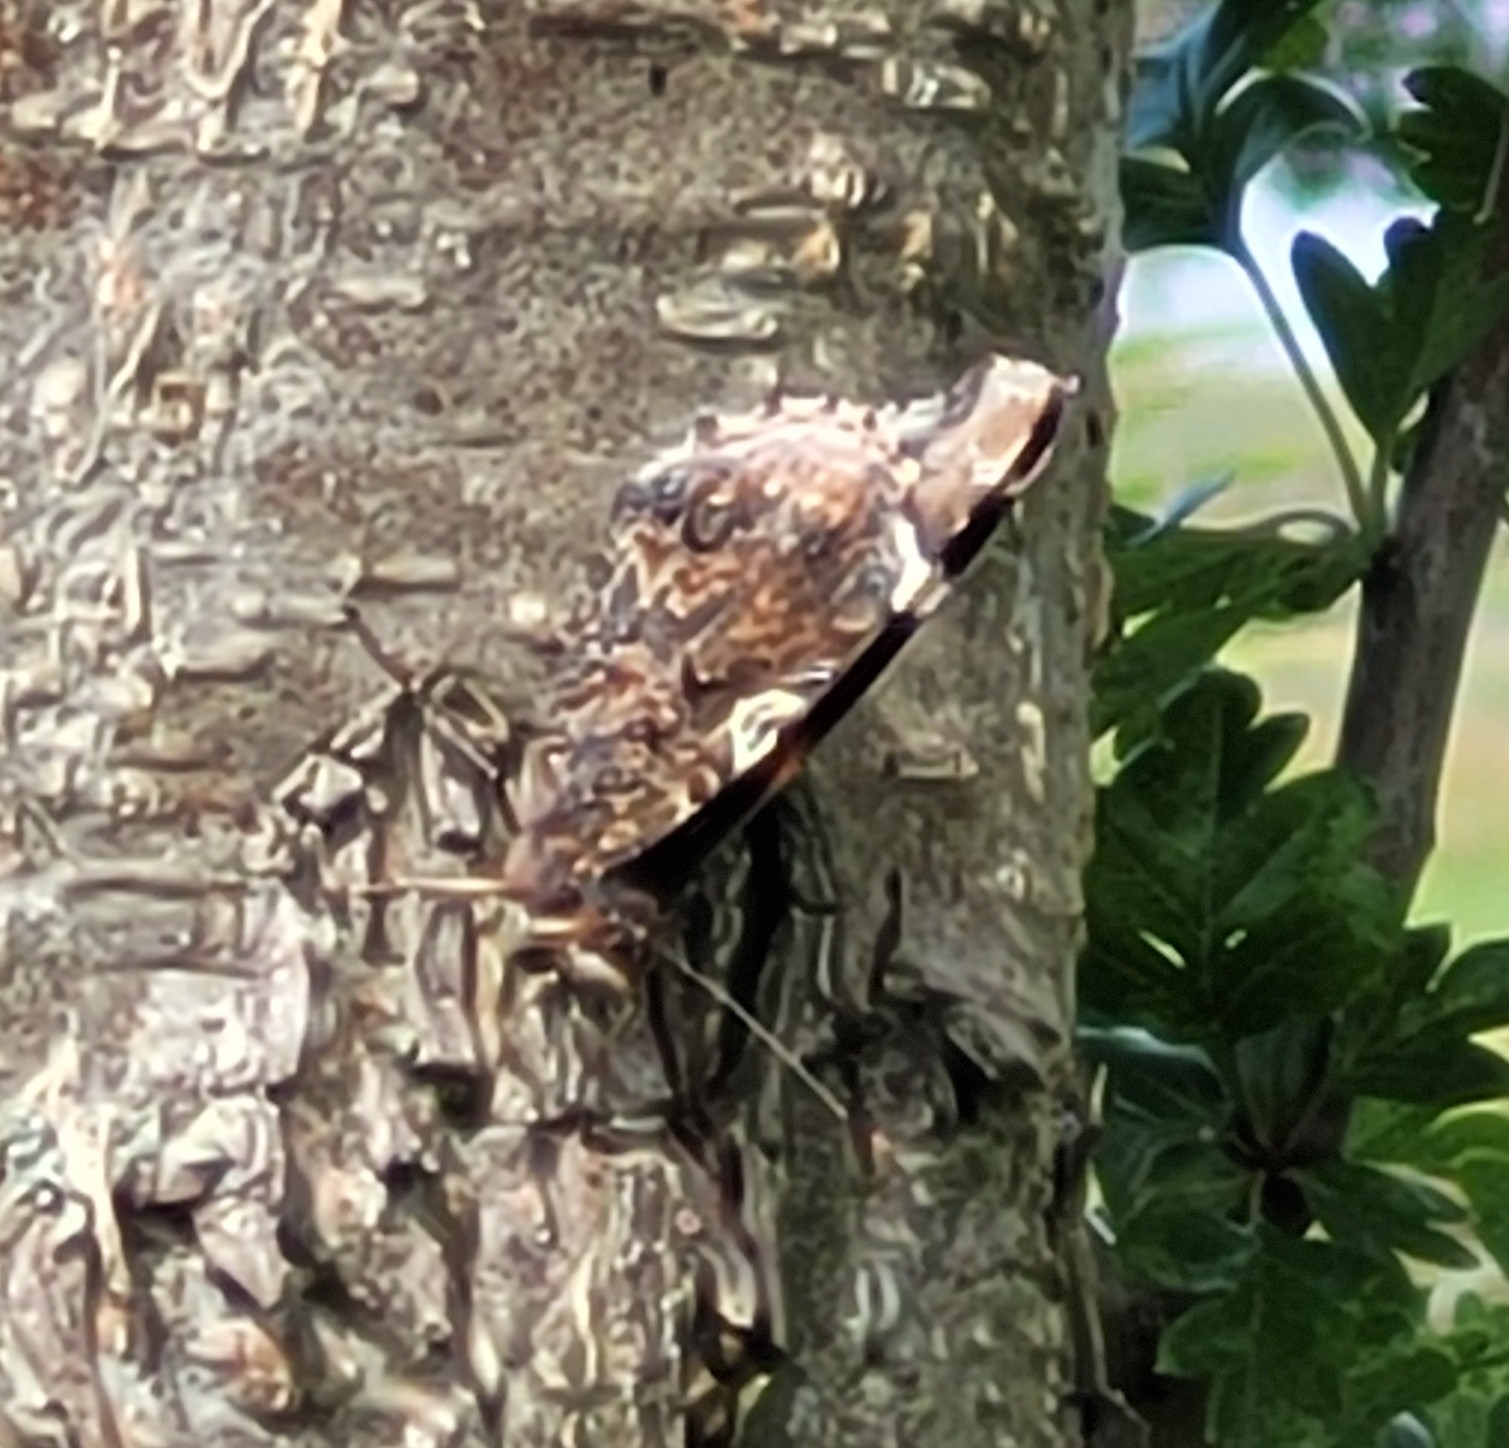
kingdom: Animalia
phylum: Arthropoda
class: Insecta
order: Lepidoptera
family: Nymphalidae
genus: Vanessa
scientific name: Vanessa atalanta
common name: Admiral
